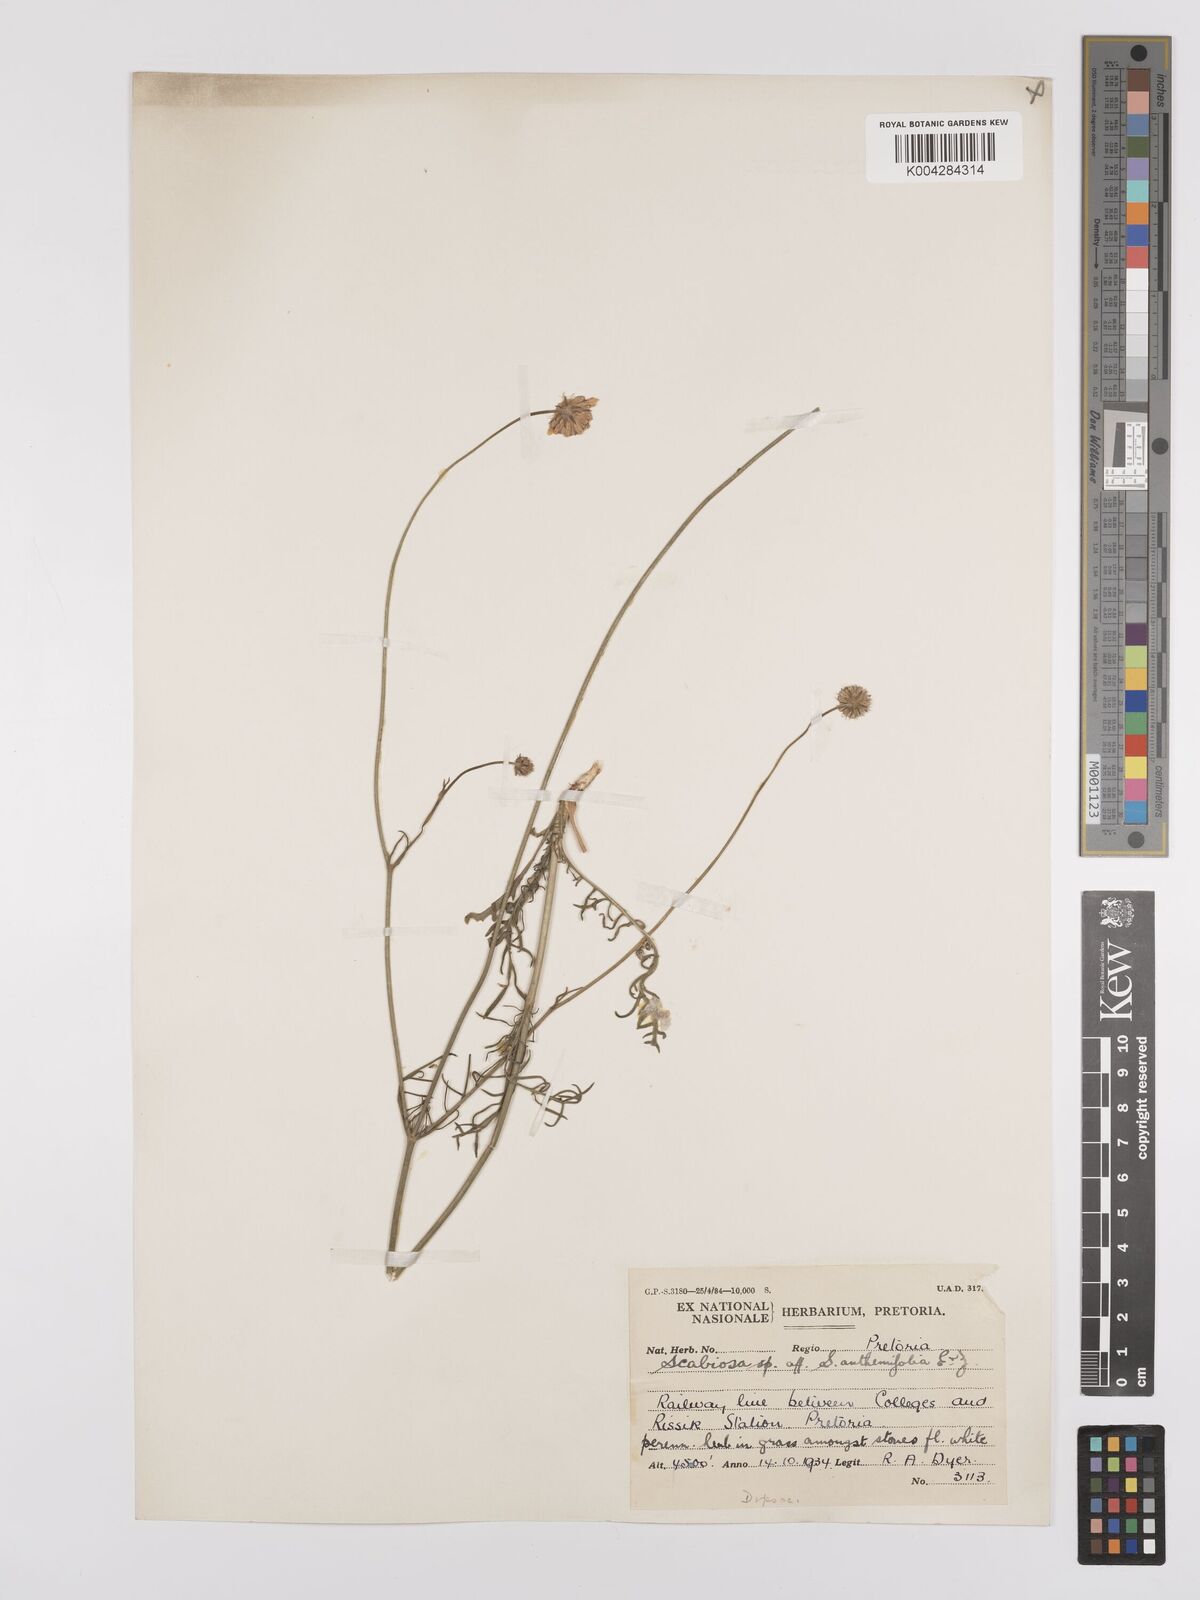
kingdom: Plantae
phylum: Tracheophyta
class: Magnoliopsida
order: Dipsacales
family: Caprifoliaceae
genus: Scabiosa
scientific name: Scabiosa austroafricana
